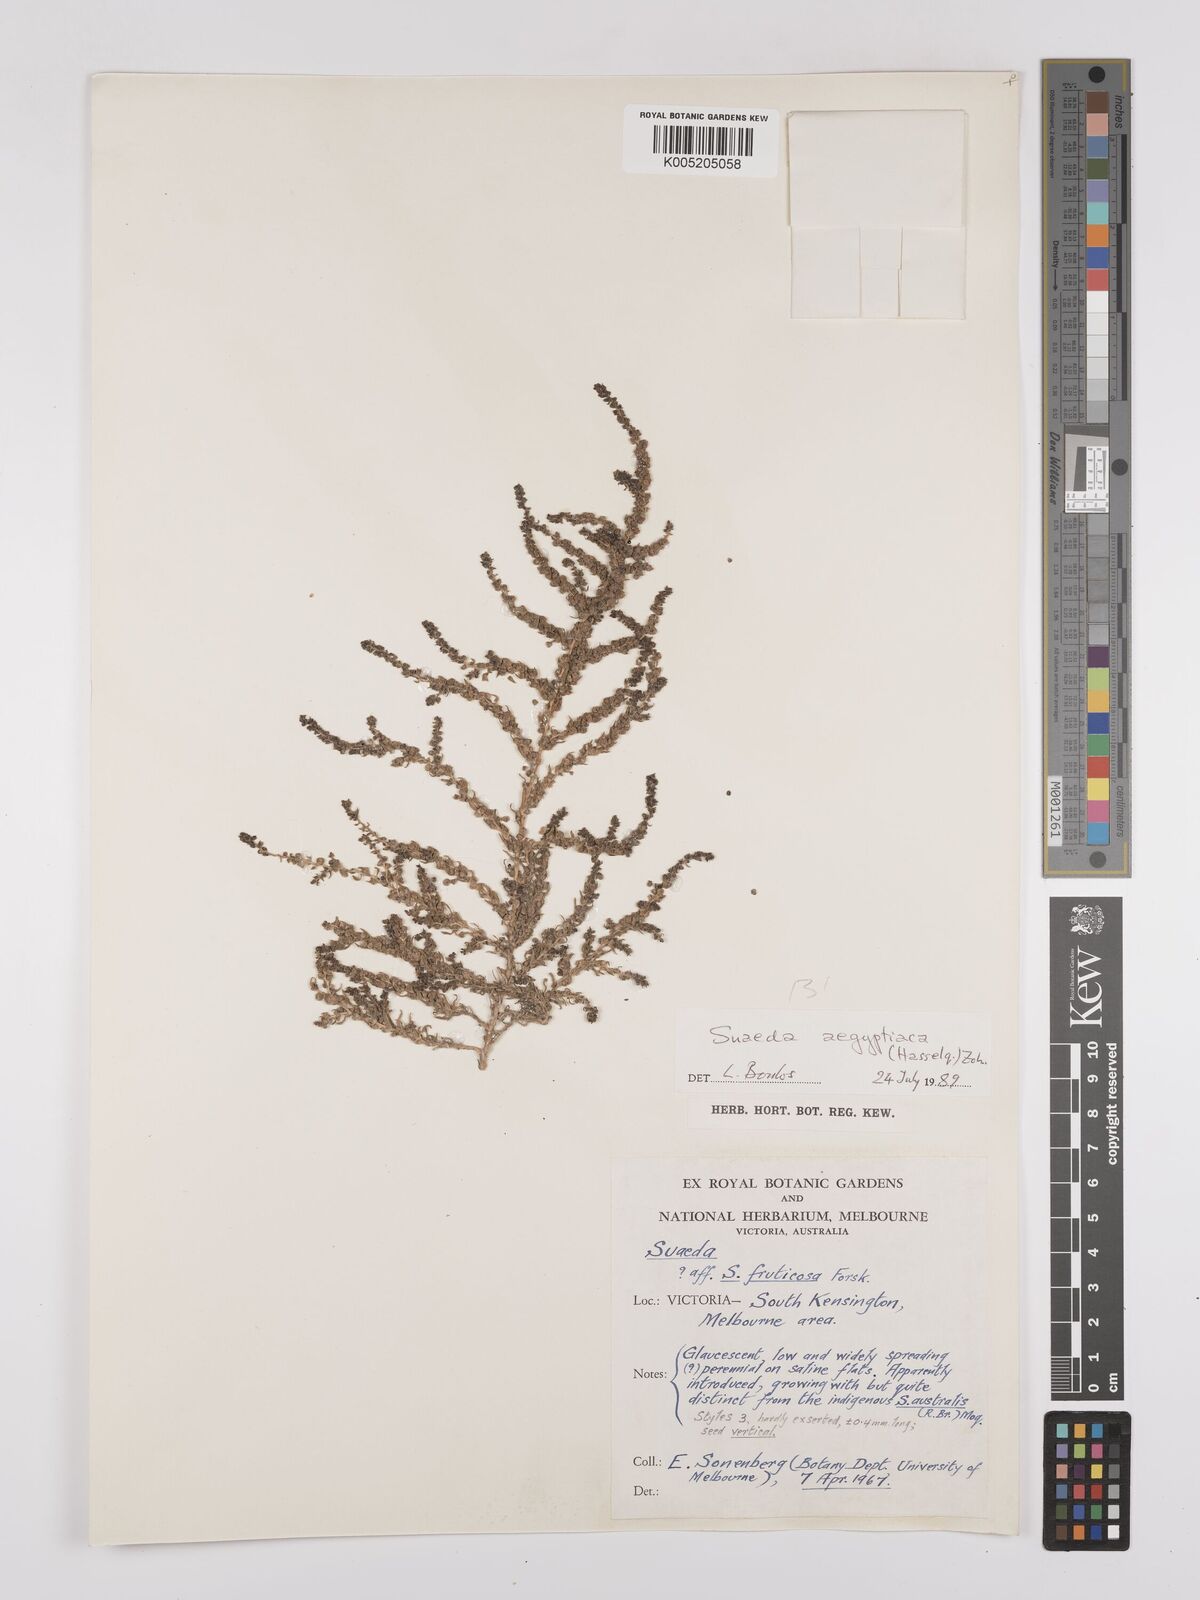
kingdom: Plantae
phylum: Tracheophyta
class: Magnoliopsida
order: Caryophyllales
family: Amaranthaceae
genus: Suaeda
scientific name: Suaeda
